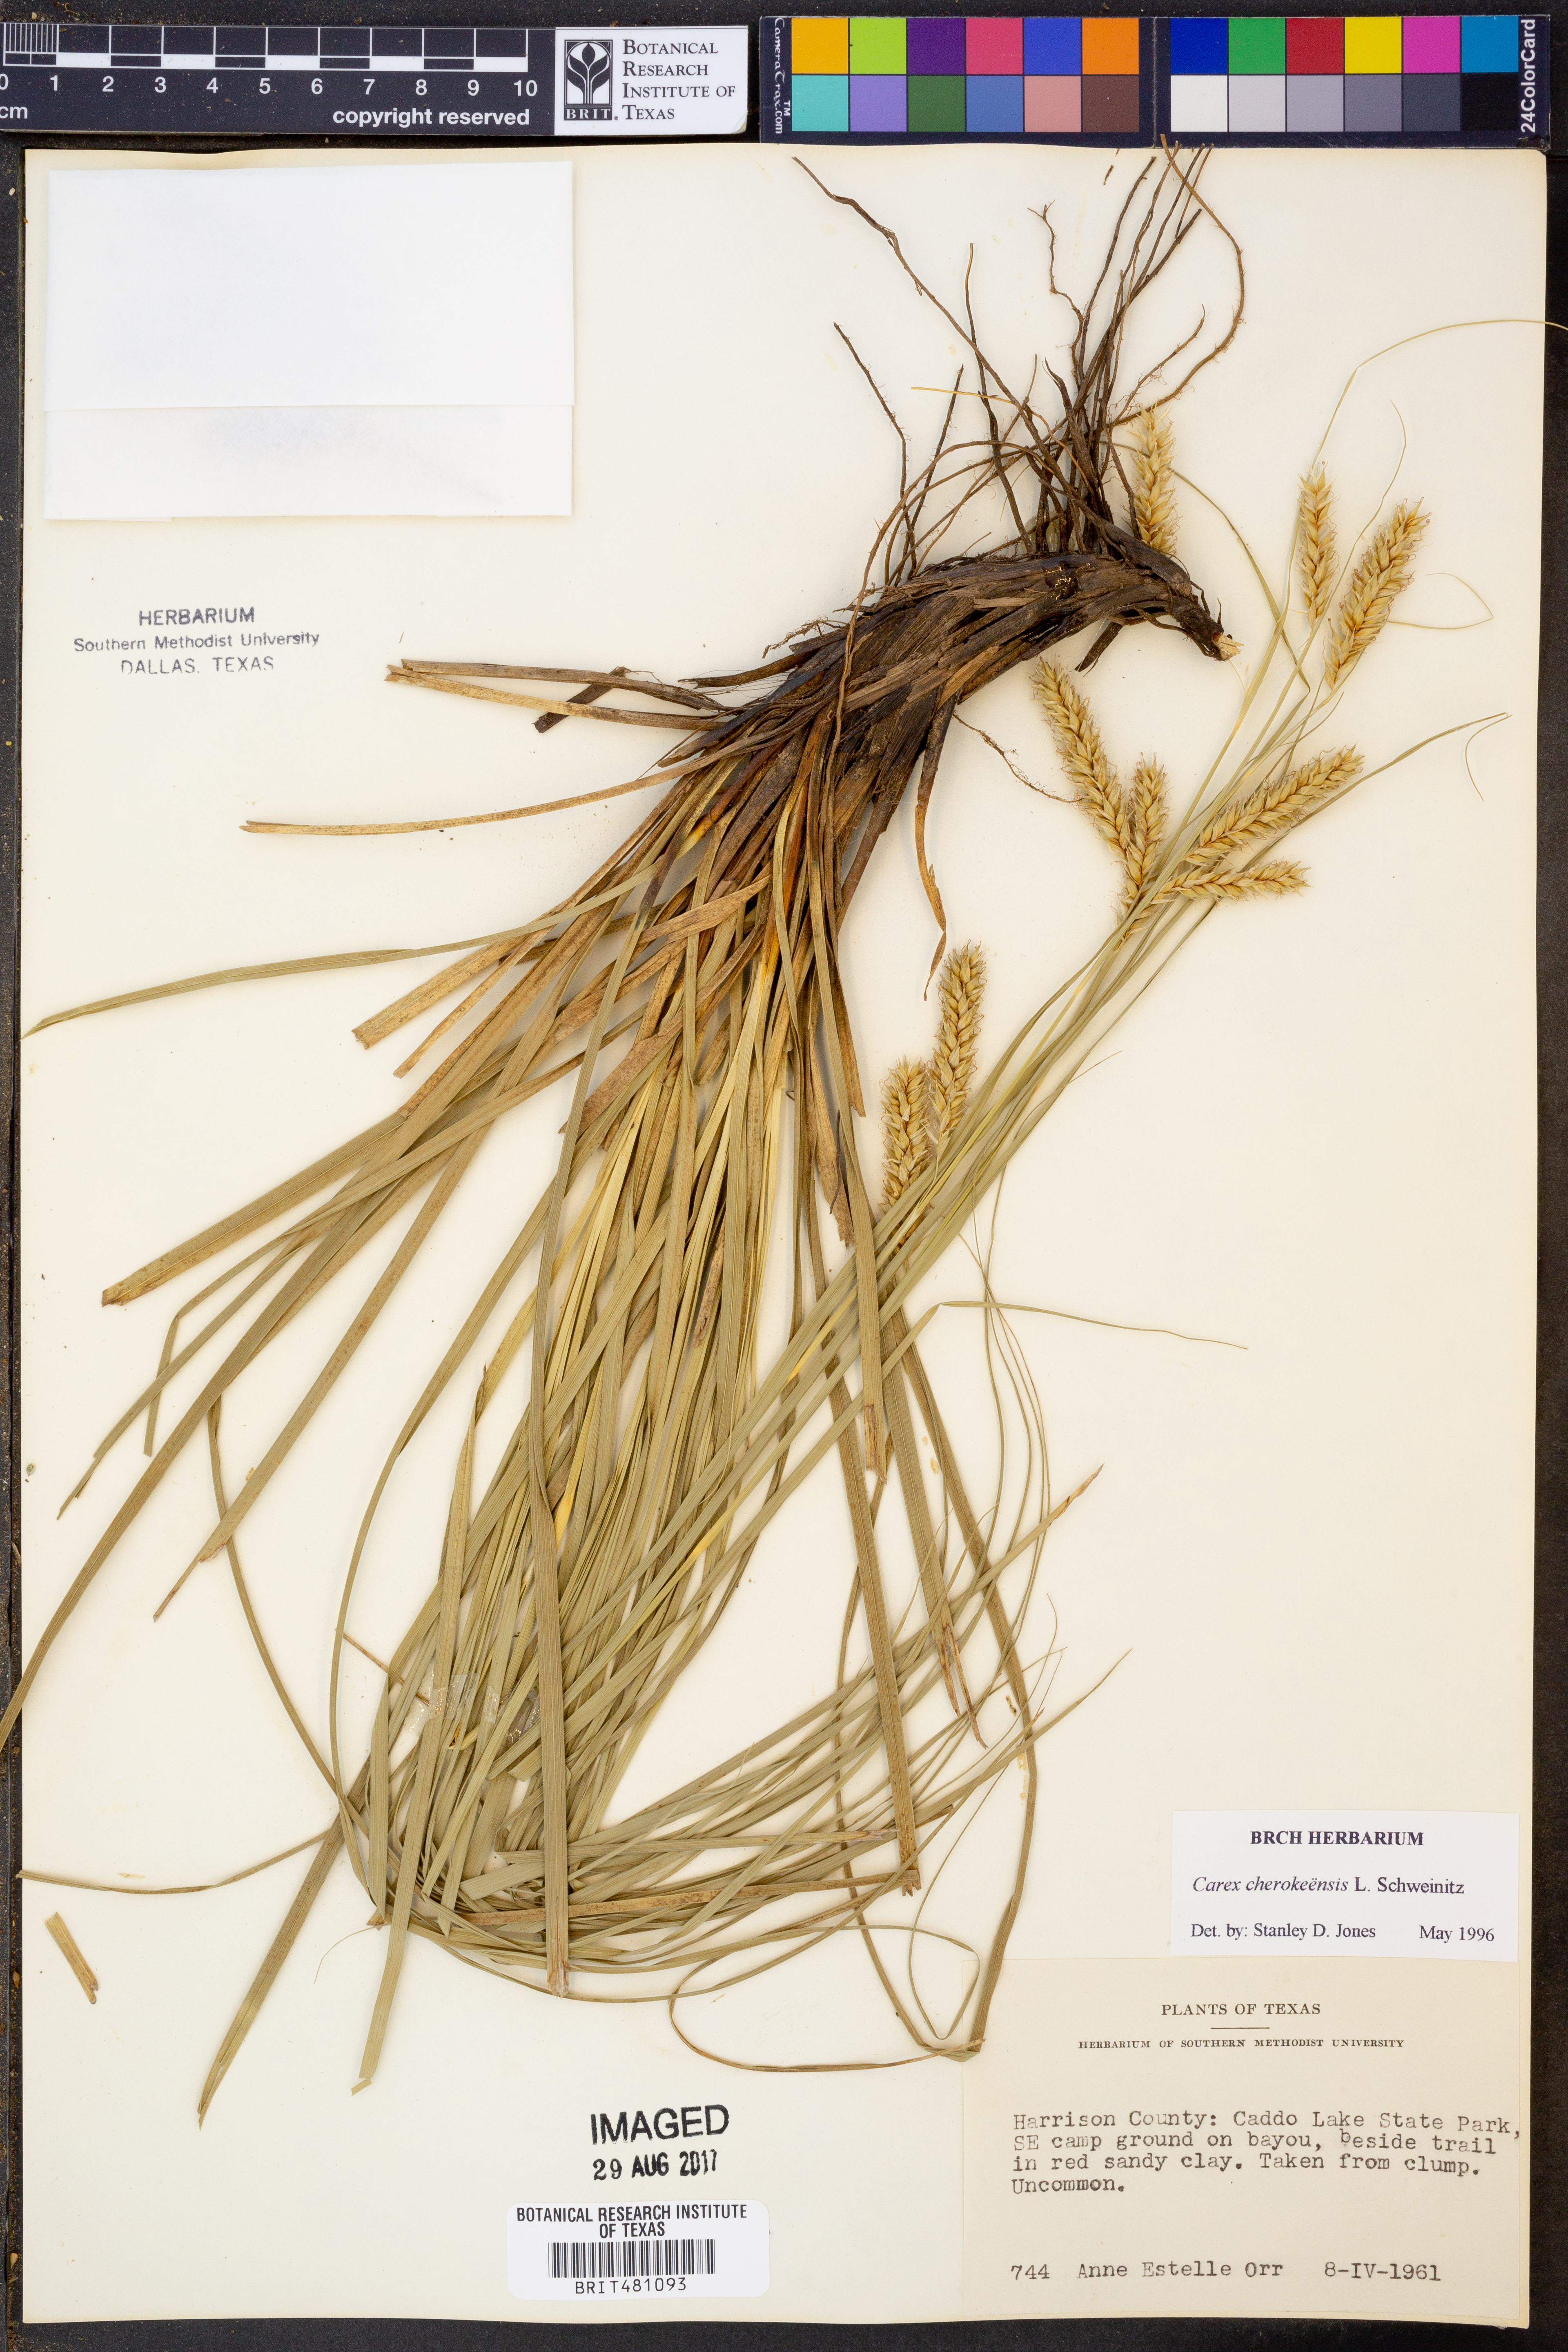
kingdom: Plantae
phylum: Tracheophyta
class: Liliopsida
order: Poales
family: Cyperaceae
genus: Carex
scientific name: Carex cherokeensis
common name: Cherokee sedge
